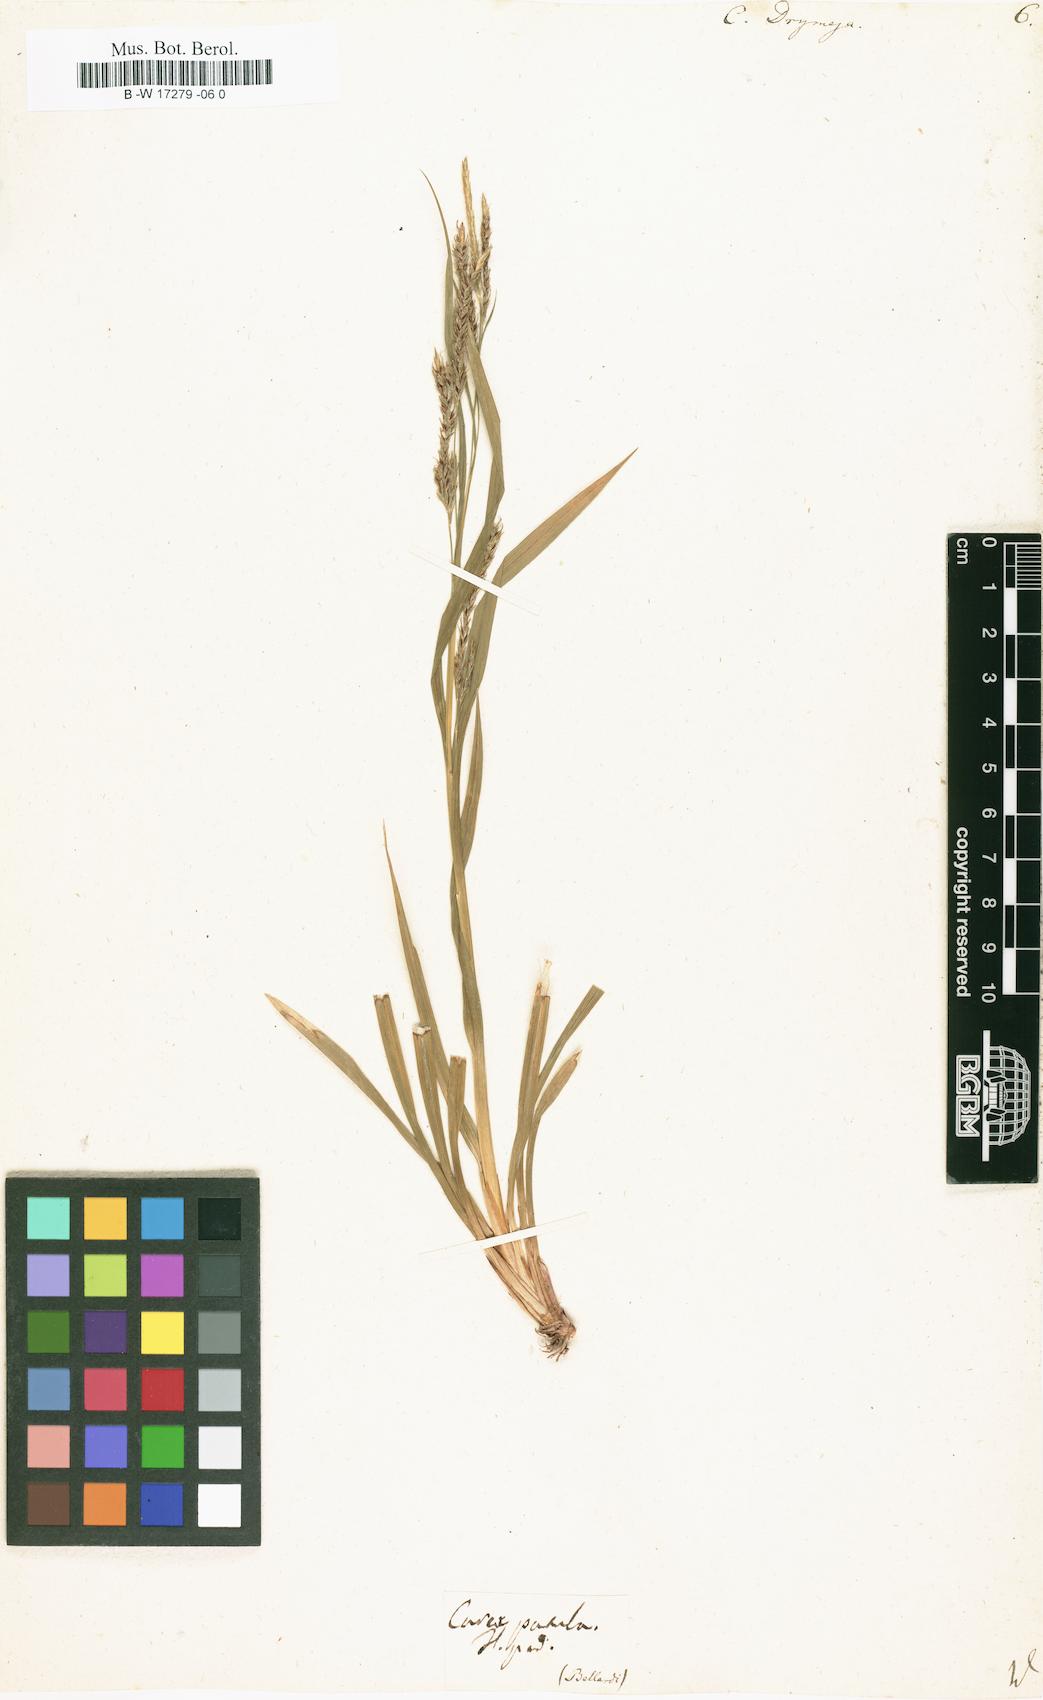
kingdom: Plantae
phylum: Tracheophyta
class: Liliopsida
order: Poales
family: Cyperaceae
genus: Carex
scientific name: Carex sylvatica
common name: Wood-sedge
